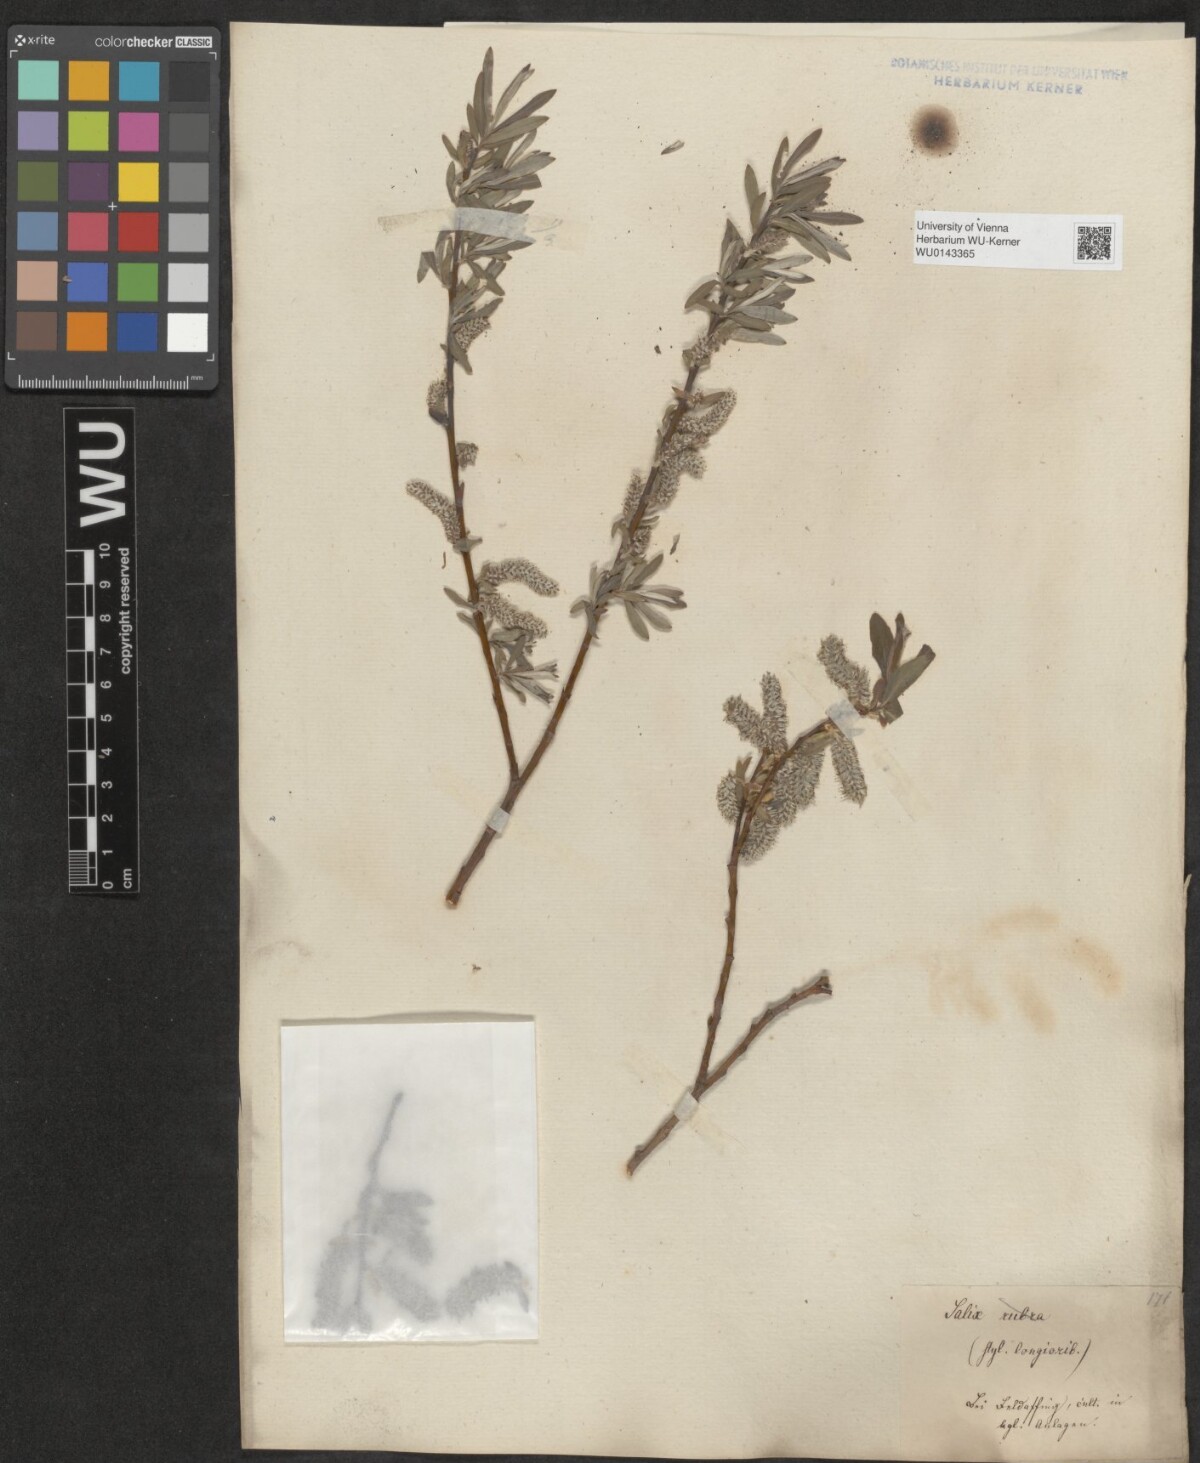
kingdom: Plantae
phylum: Tracheophyta
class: Magnoliopsida
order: Malpighiales
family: Salicaceae
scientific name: Salicaceae
